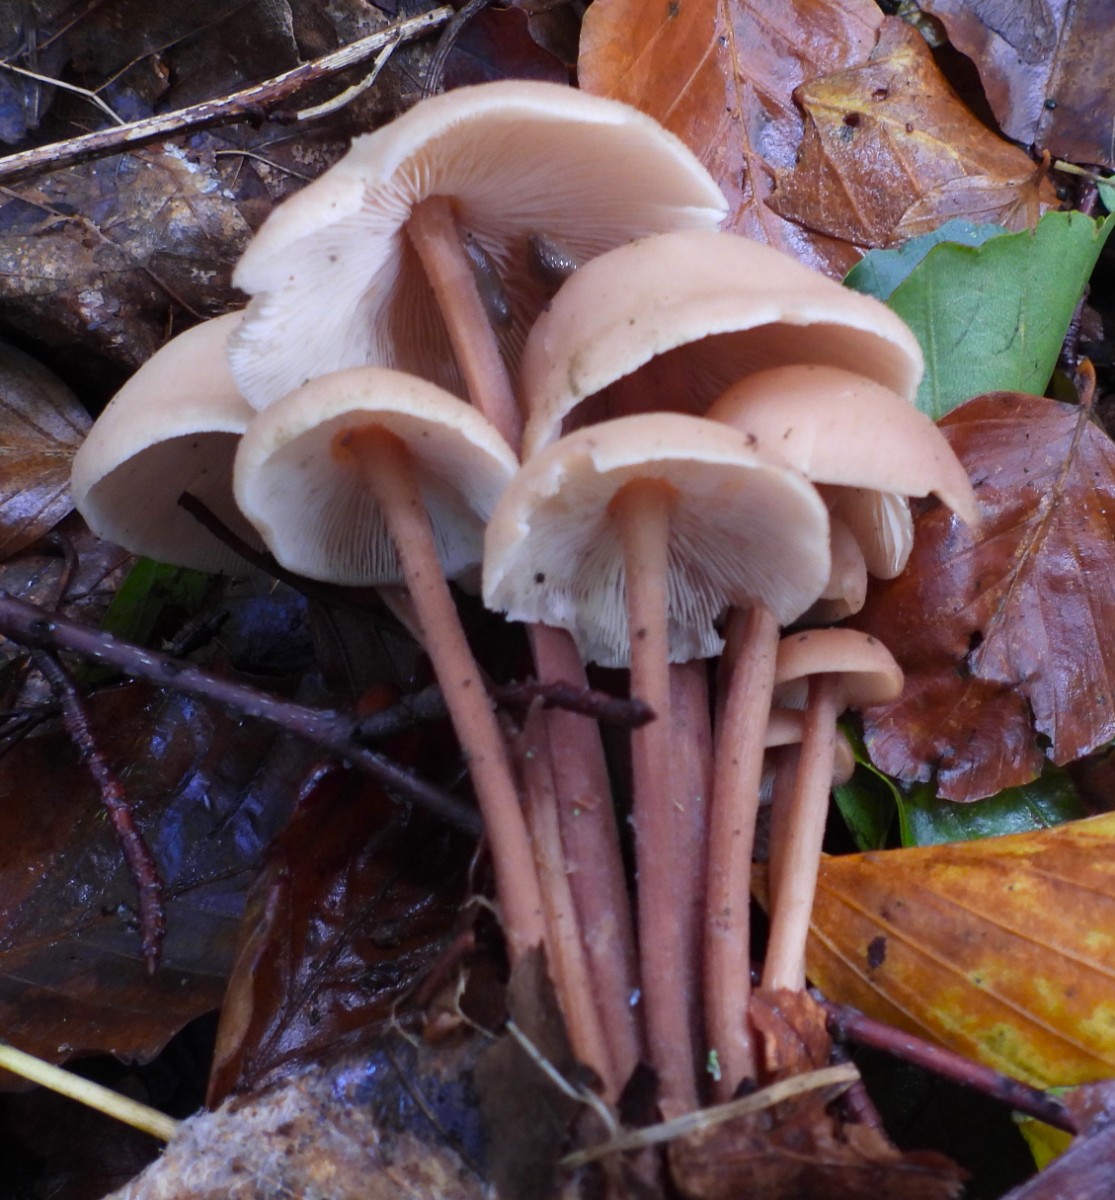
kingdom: Fungi
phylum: Basidiomycota
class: Agaricomycetes
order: Agaricales
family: Omphalotaceae
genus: Collybiopsis
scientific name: Collybiopsis confluens
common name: knippe-fladhat
